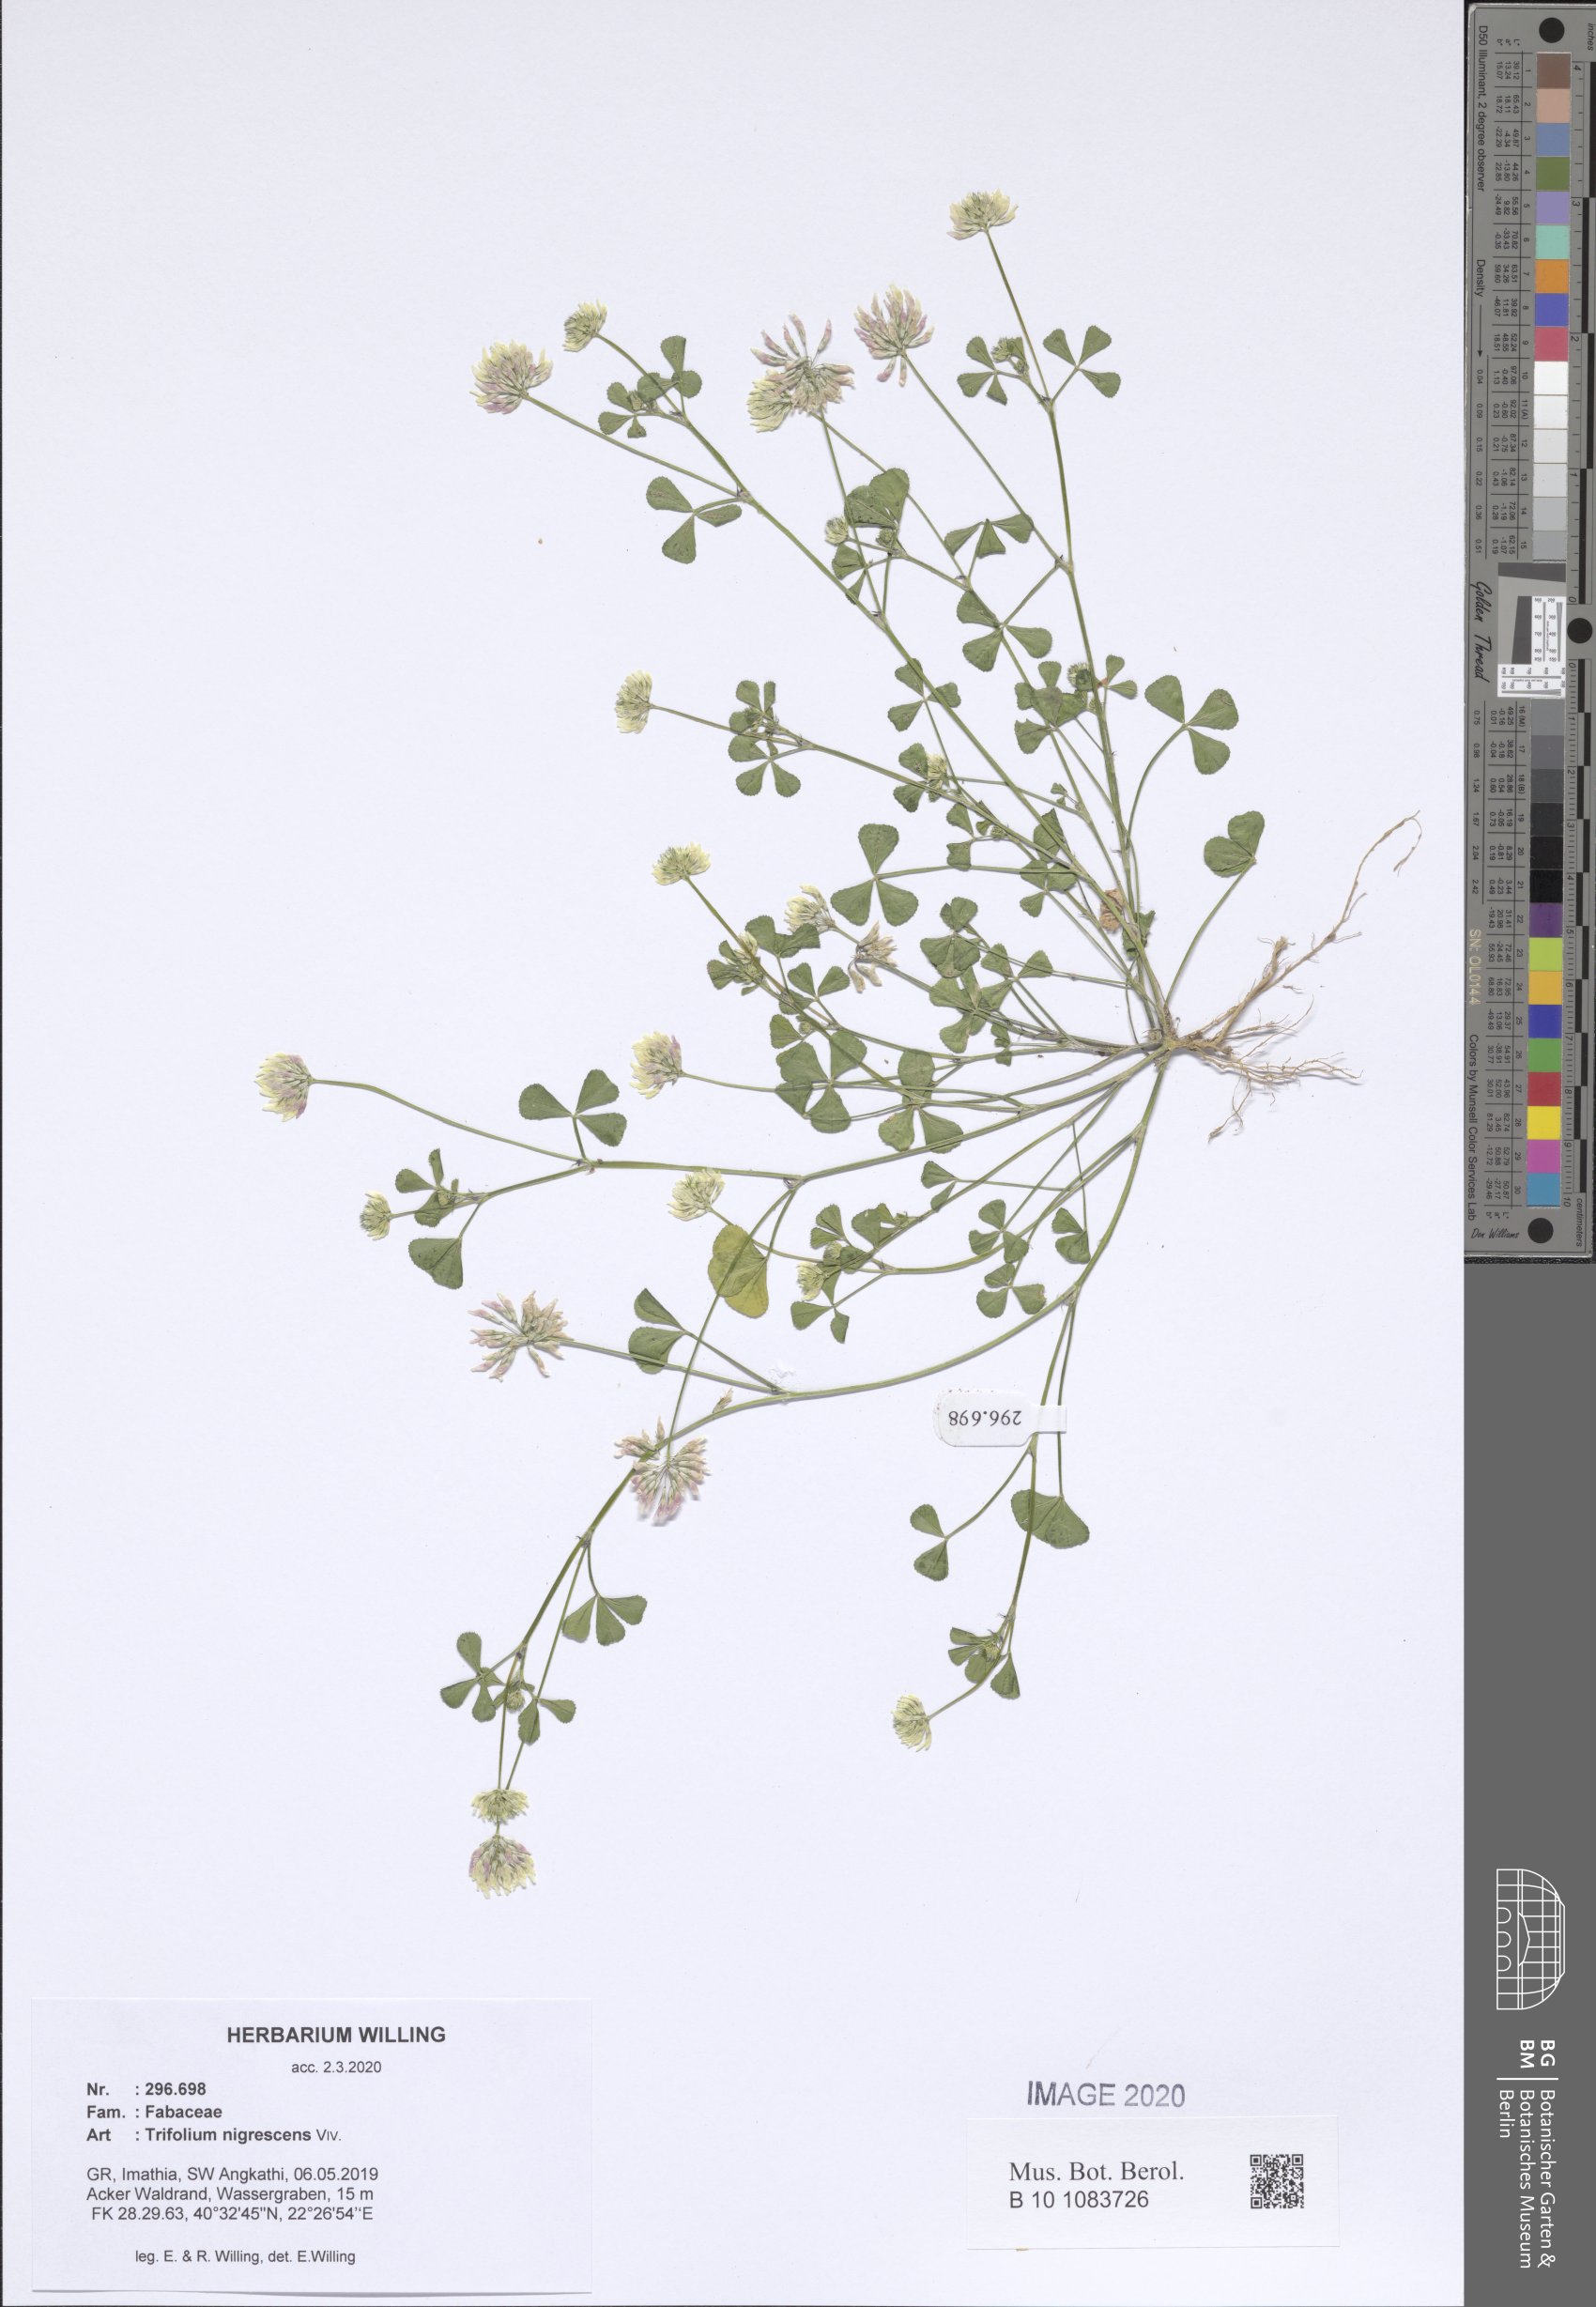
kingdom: Plantae
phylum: Tracheophyta
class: Magnoliopsida
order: Fabales
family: Fabaceae
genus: Trifolium
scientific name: Trifolium nigrescens
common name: Small white clover
